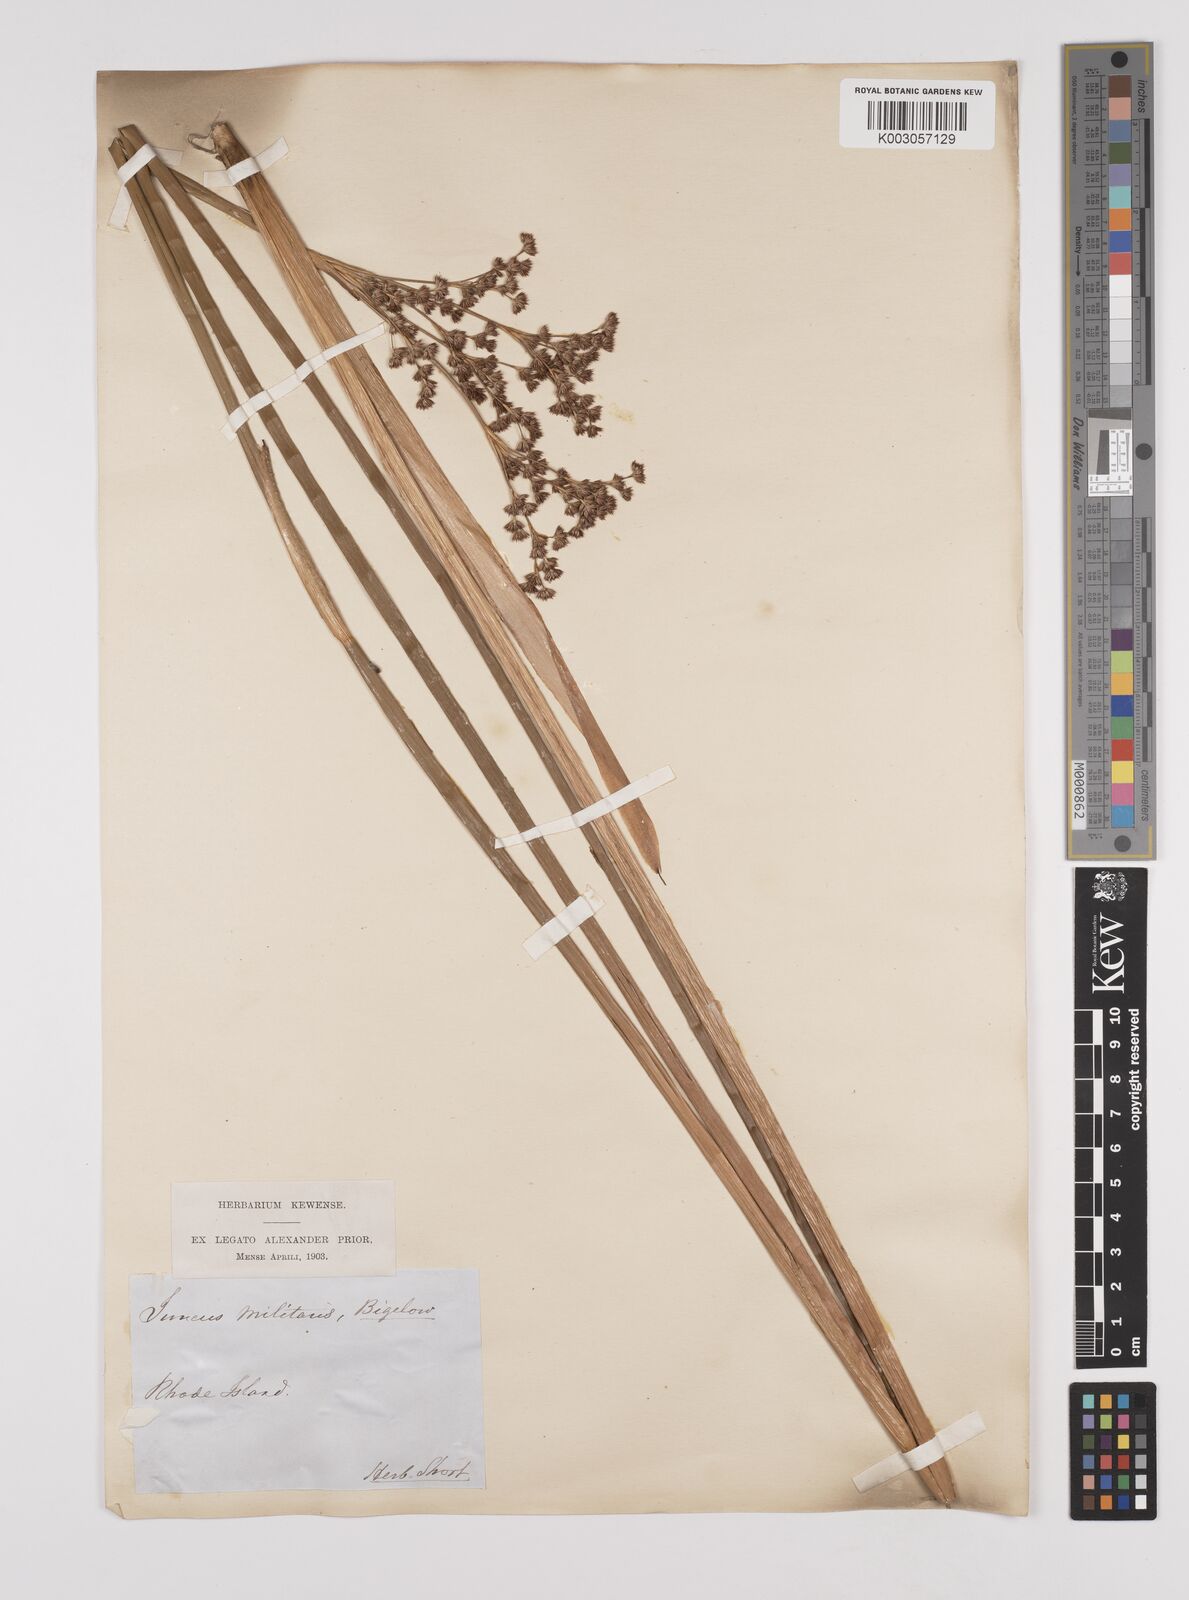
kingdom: Plantae
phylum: Tracheophyta
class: Liliopsida
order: Poales
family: Juncaceae
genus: Juncus
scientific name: Juncus militaris
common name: Bayonet rush
